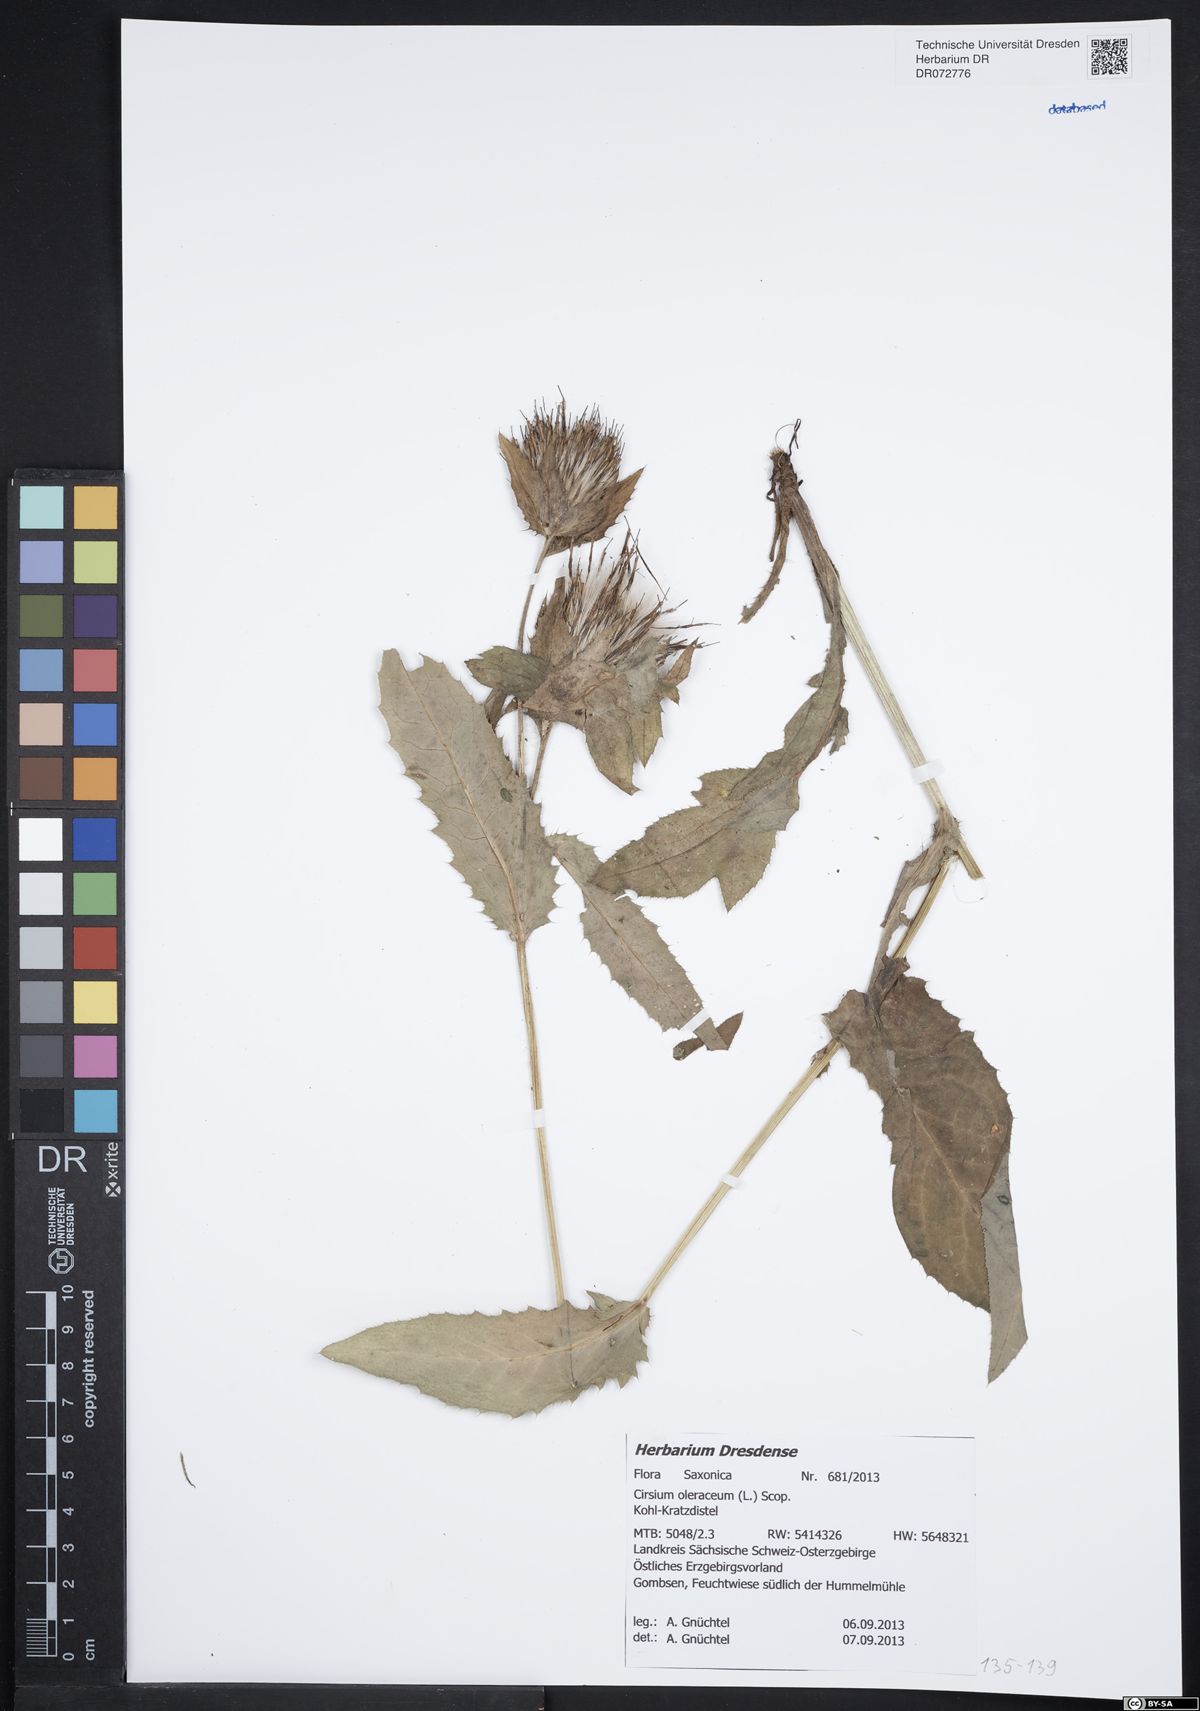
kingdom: Plantae
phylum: Tracheophyta
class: Magnoliopsida
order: Asterales
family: Asteraceae
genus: Cirsium
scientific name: Cirsium oleraceum
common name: Cabbage thistle
